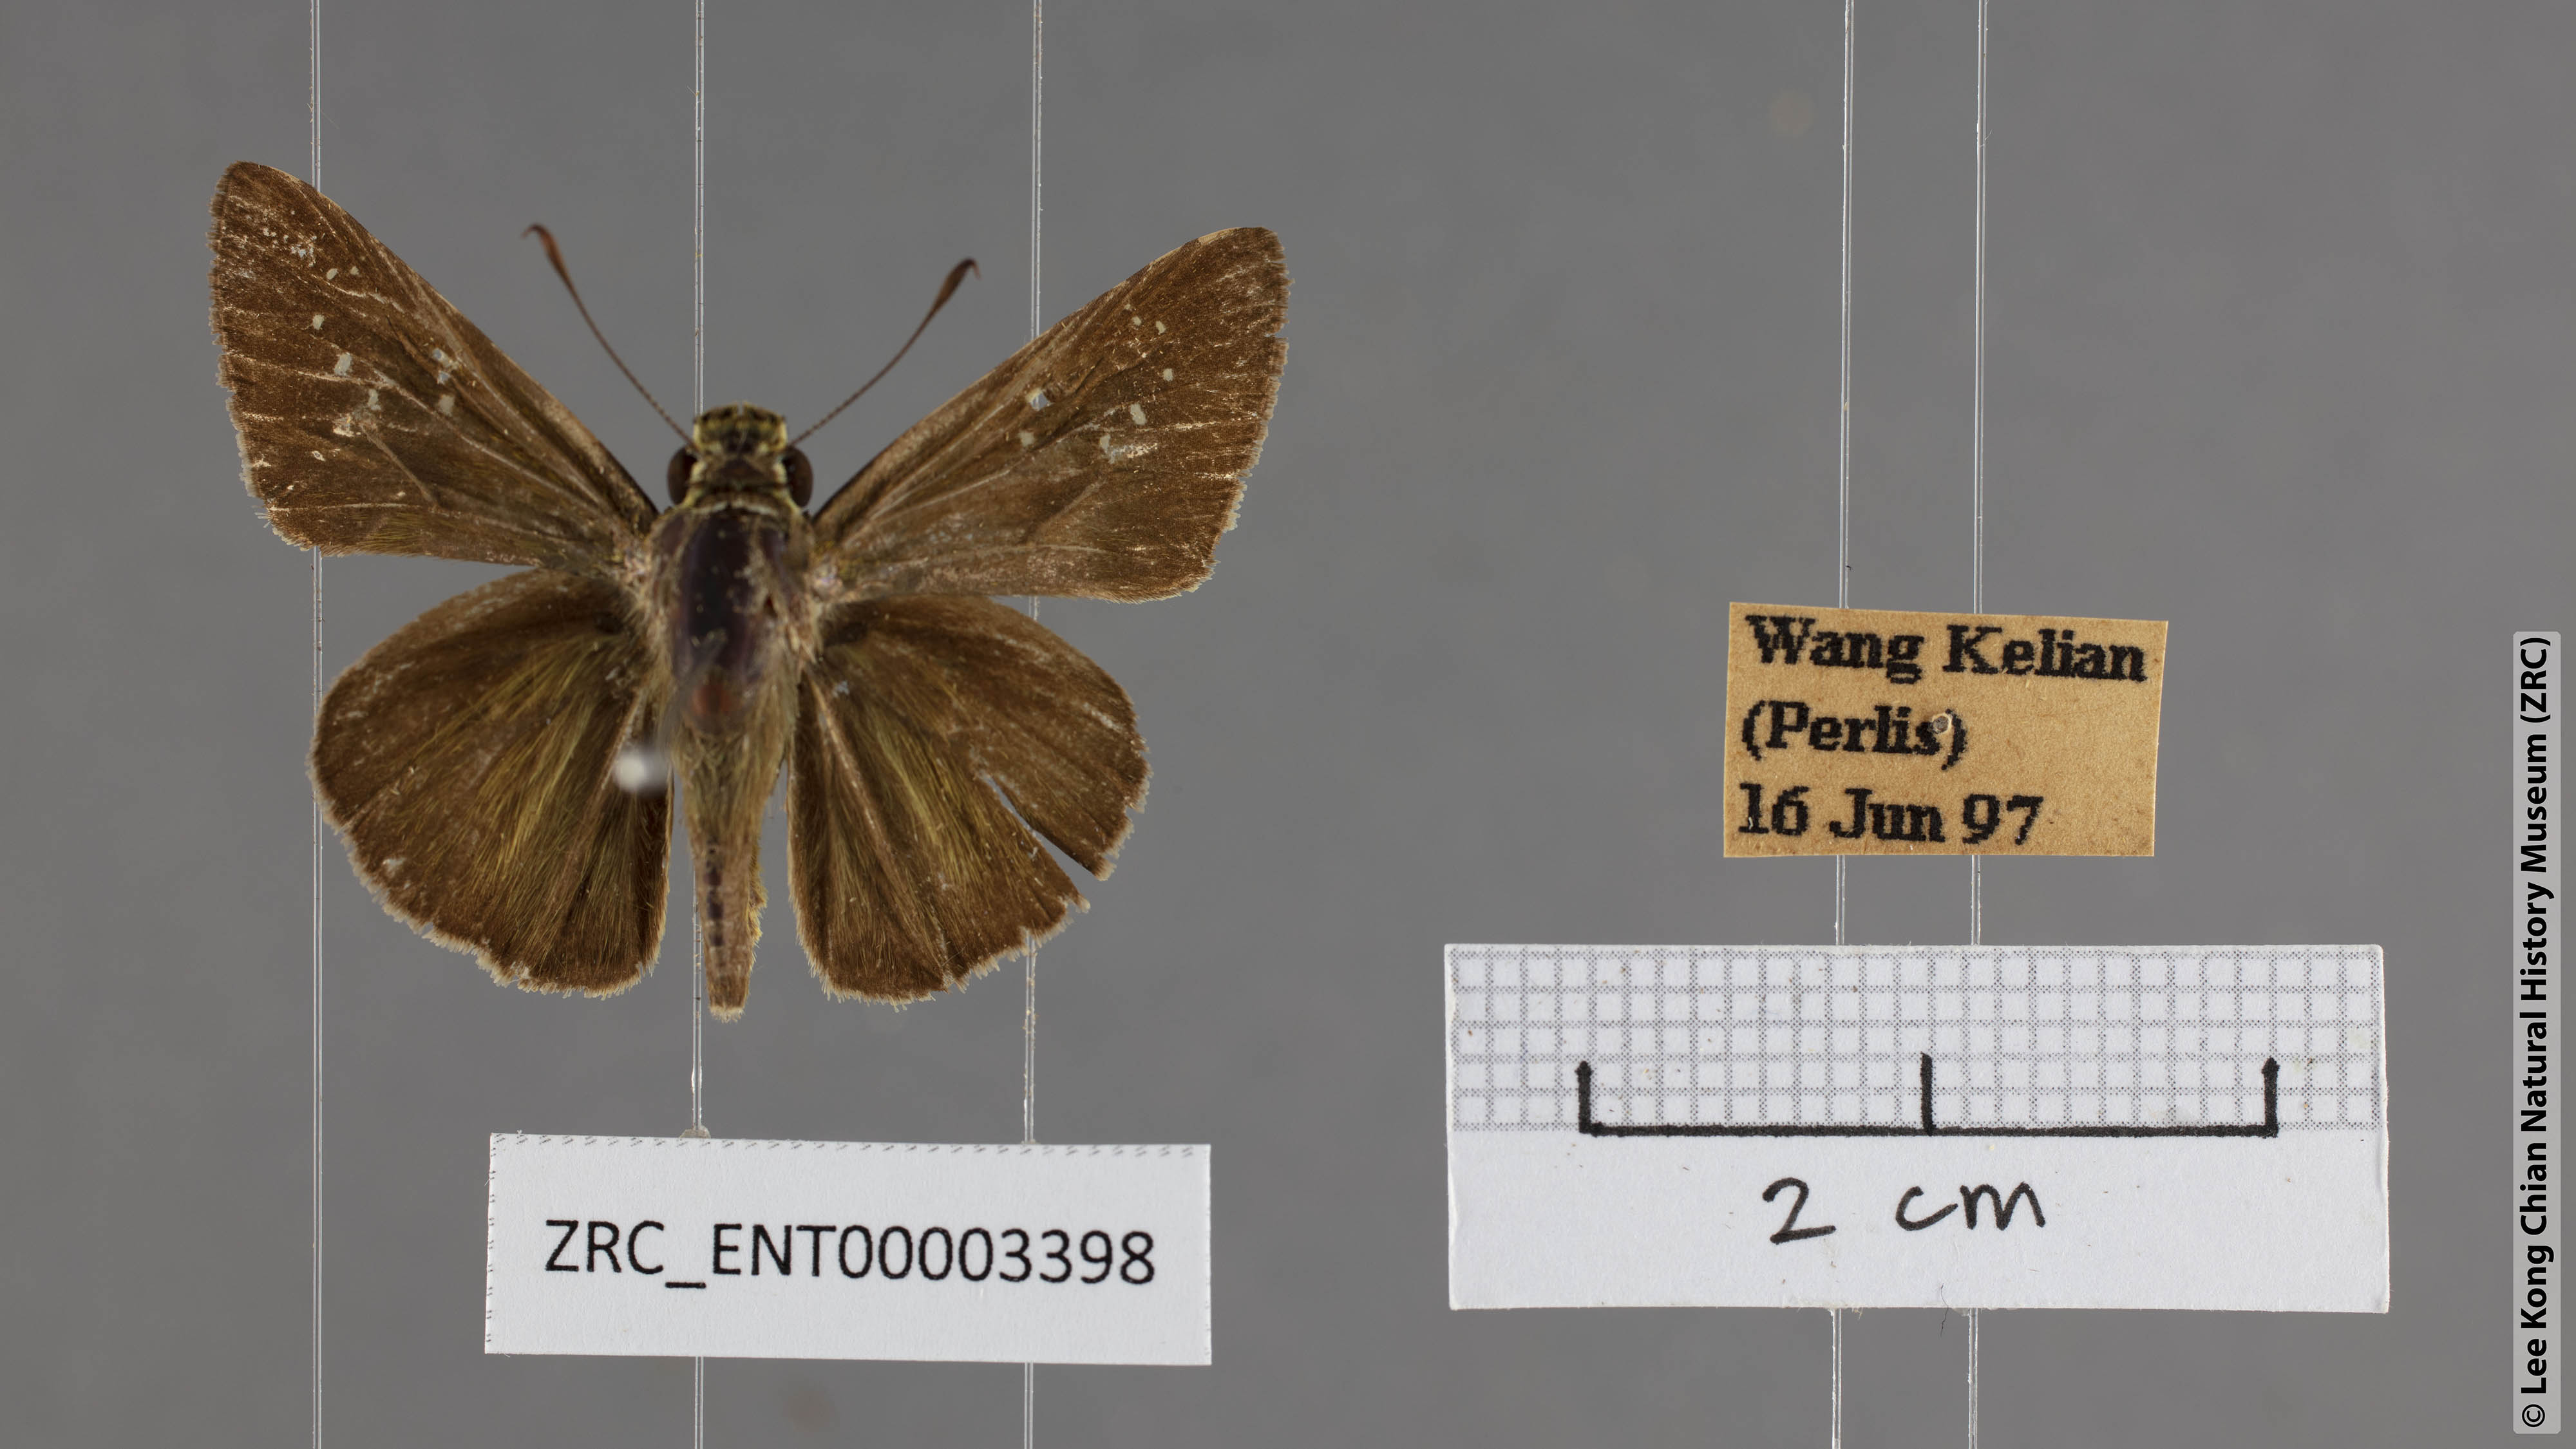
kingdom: Animalia
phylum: Arthropoda
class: Insecta
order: Lepidoptera
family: Hesperiidae
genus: Pelopidas
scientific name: Pelopidas agna
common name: Little branded swift
